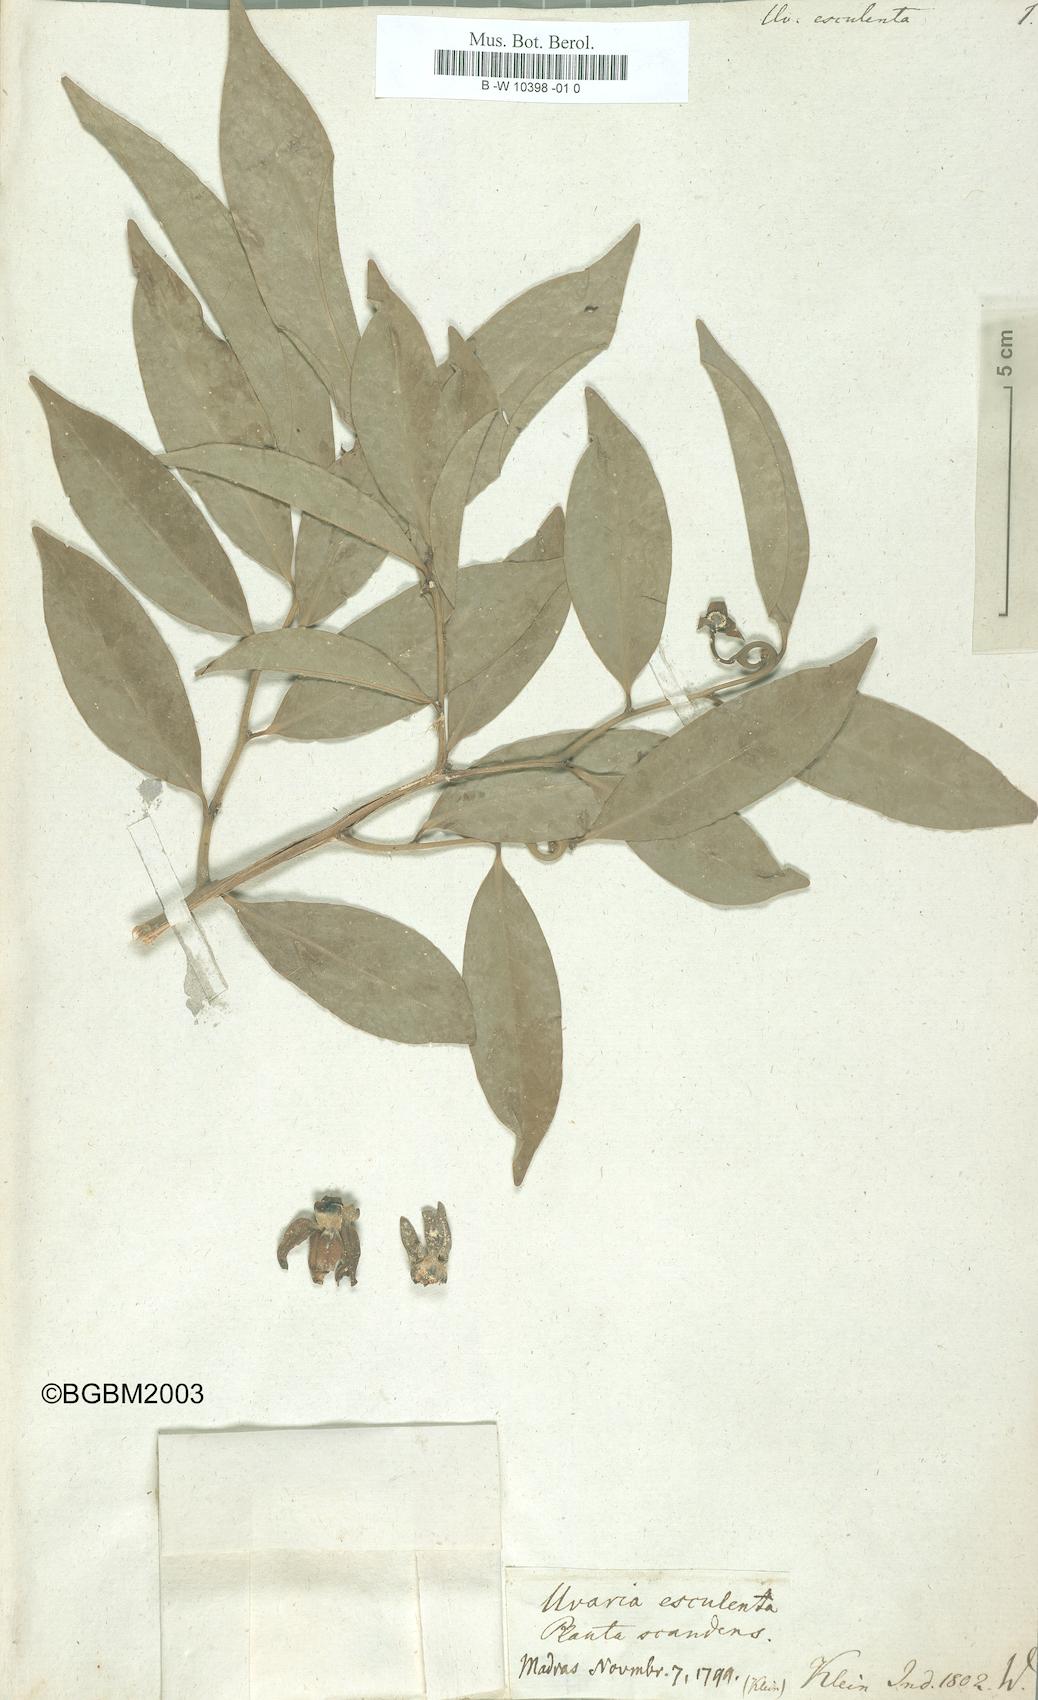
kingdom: Plantae
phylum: Tracheophyta
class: Magnoliopsida
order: Magnoliales
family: Annonaceae
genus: Artabotrys
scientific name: Artabotrys hexapetalus
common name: Climbing ilang-ilang
